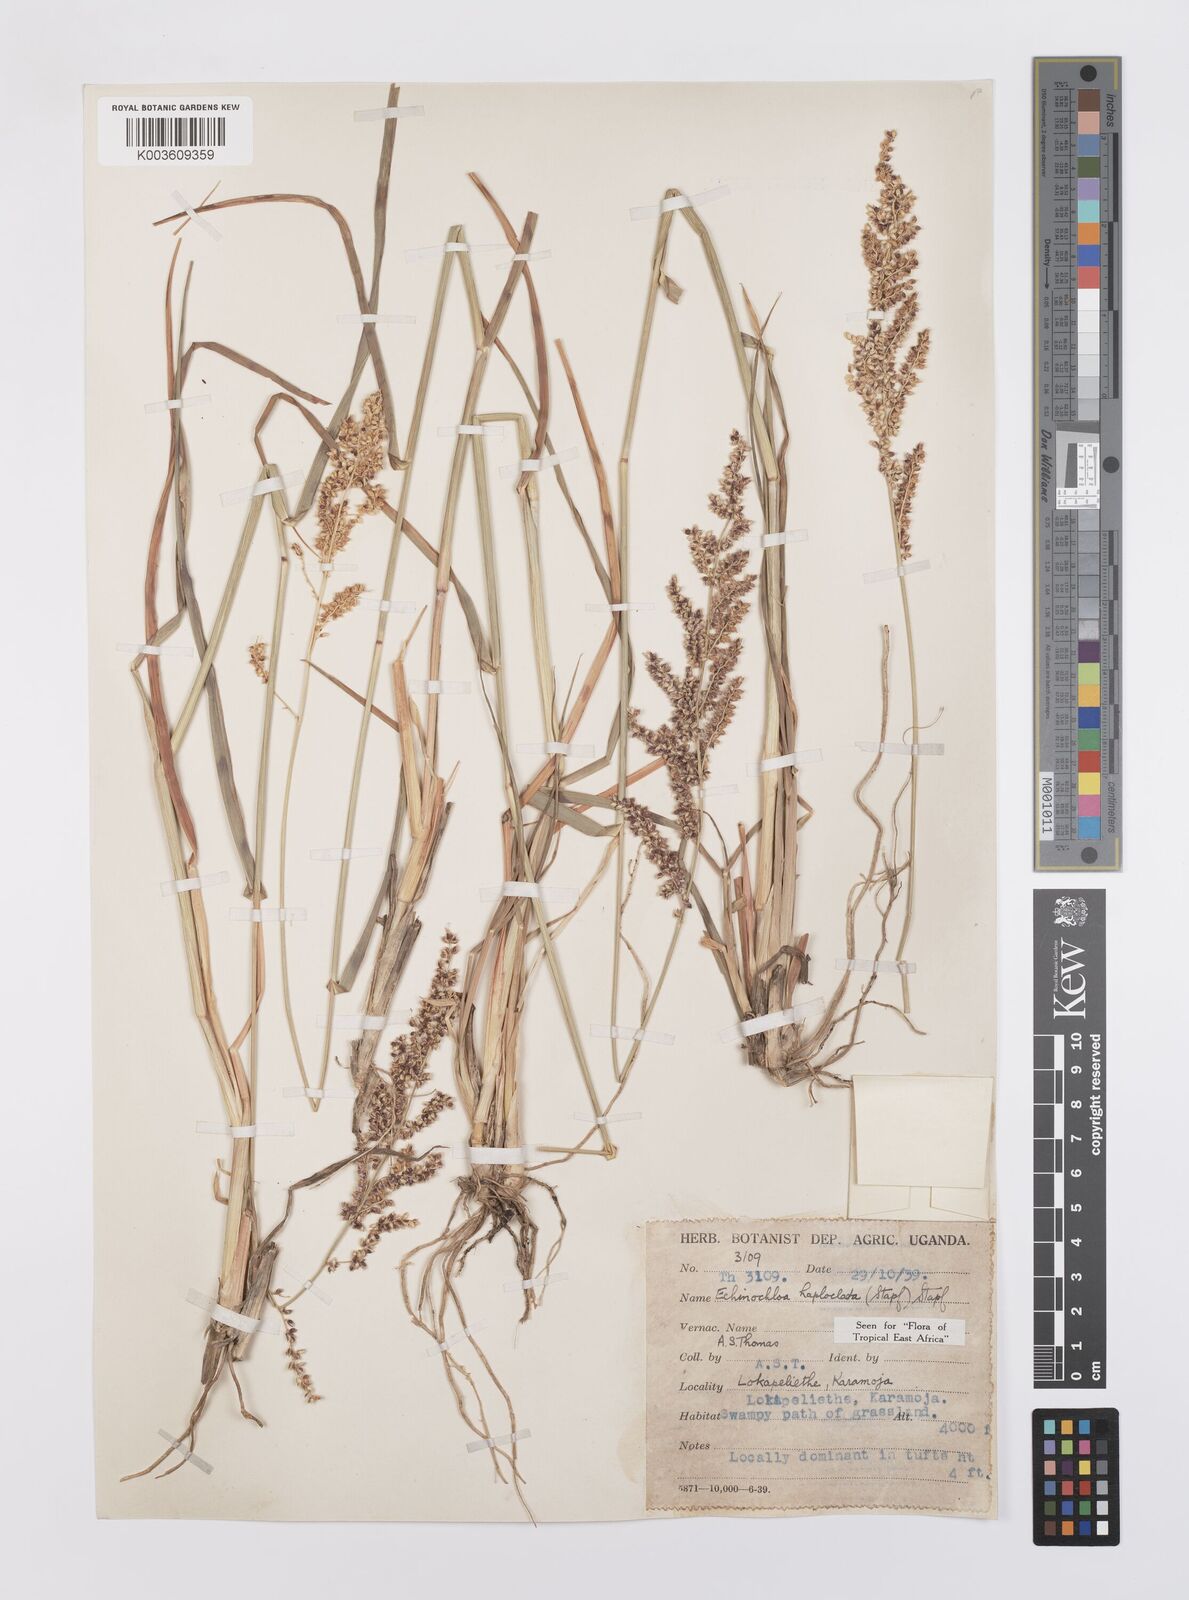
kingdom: Plantae
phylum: Tracheophyta
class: Liliopsida
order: Poales
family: Poaceae
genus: Echinochloa
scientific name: Echinochloa haploclada
